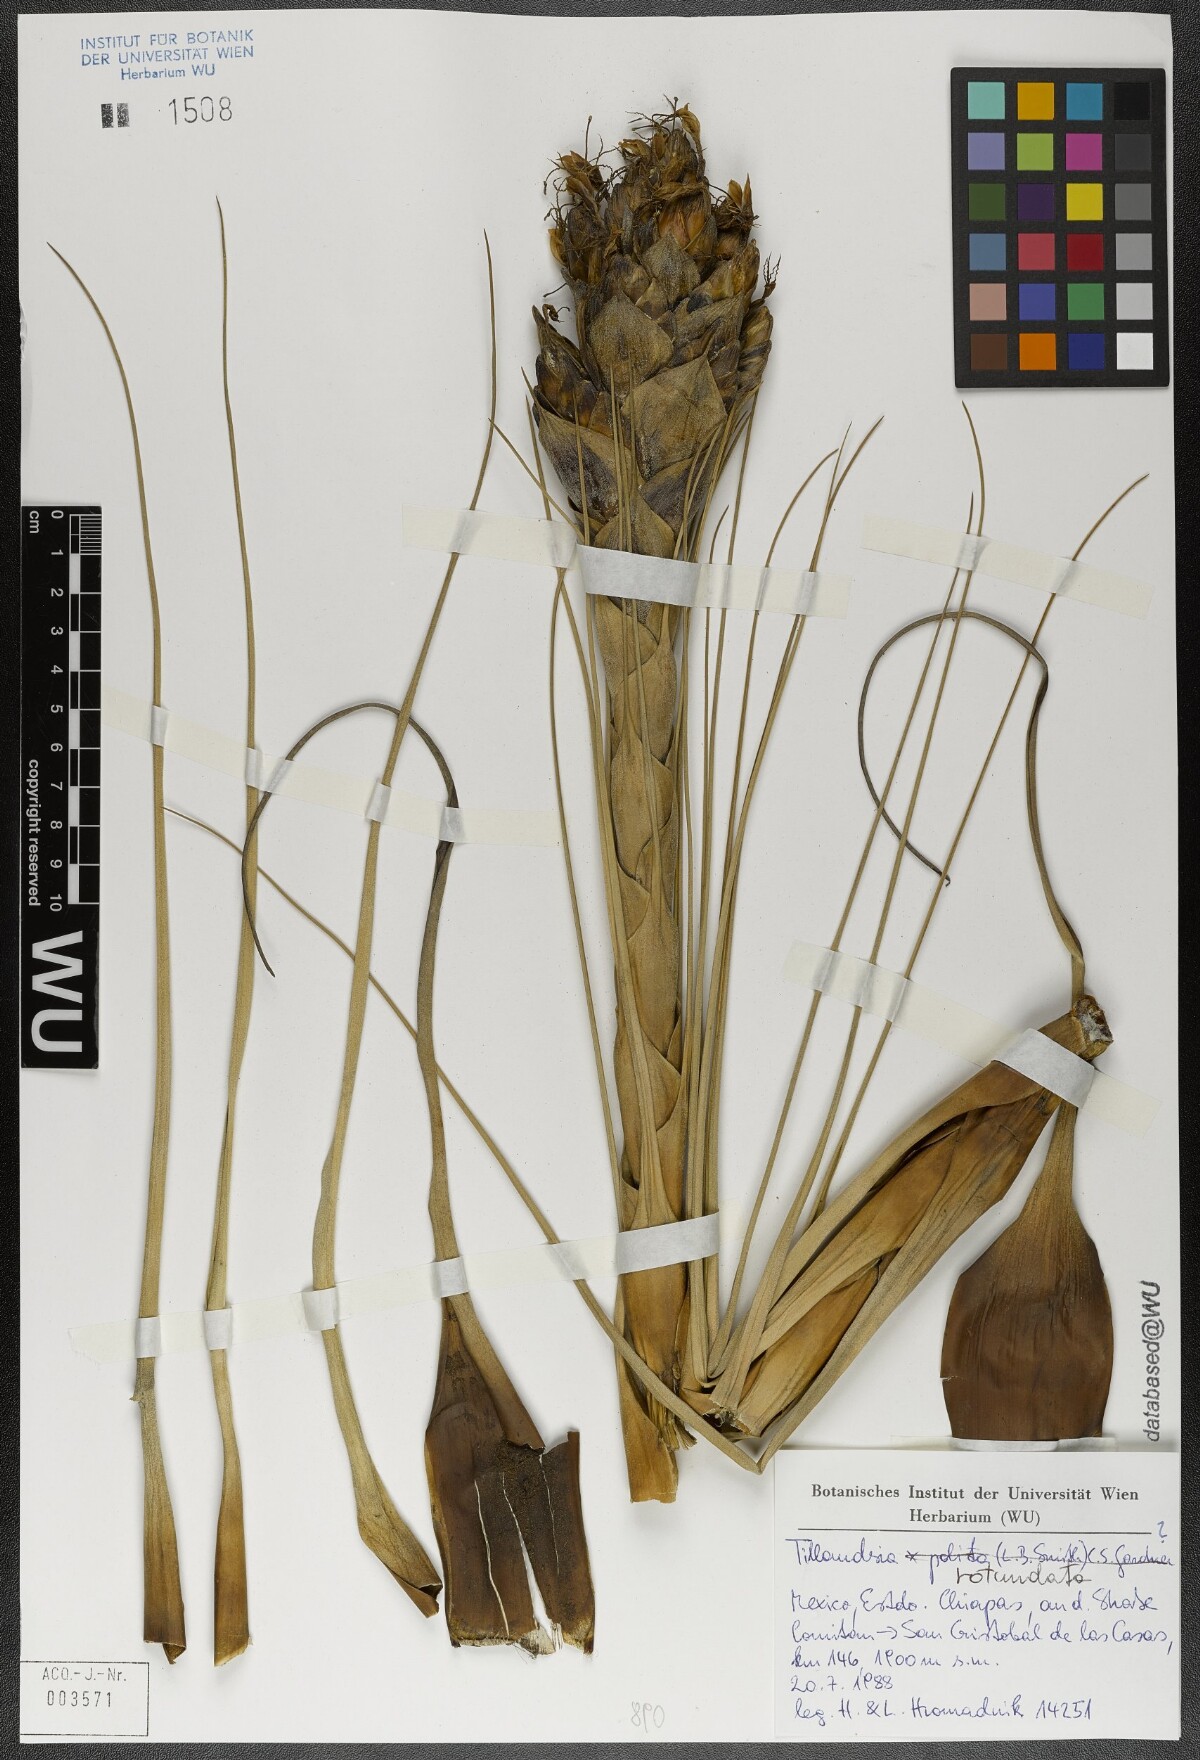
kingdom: Plantae
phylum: Tracheophyta
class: Liliopsida
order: Poales
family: Bromeliaceae
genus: Tillandsia
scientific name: Tillandsia rotundata
